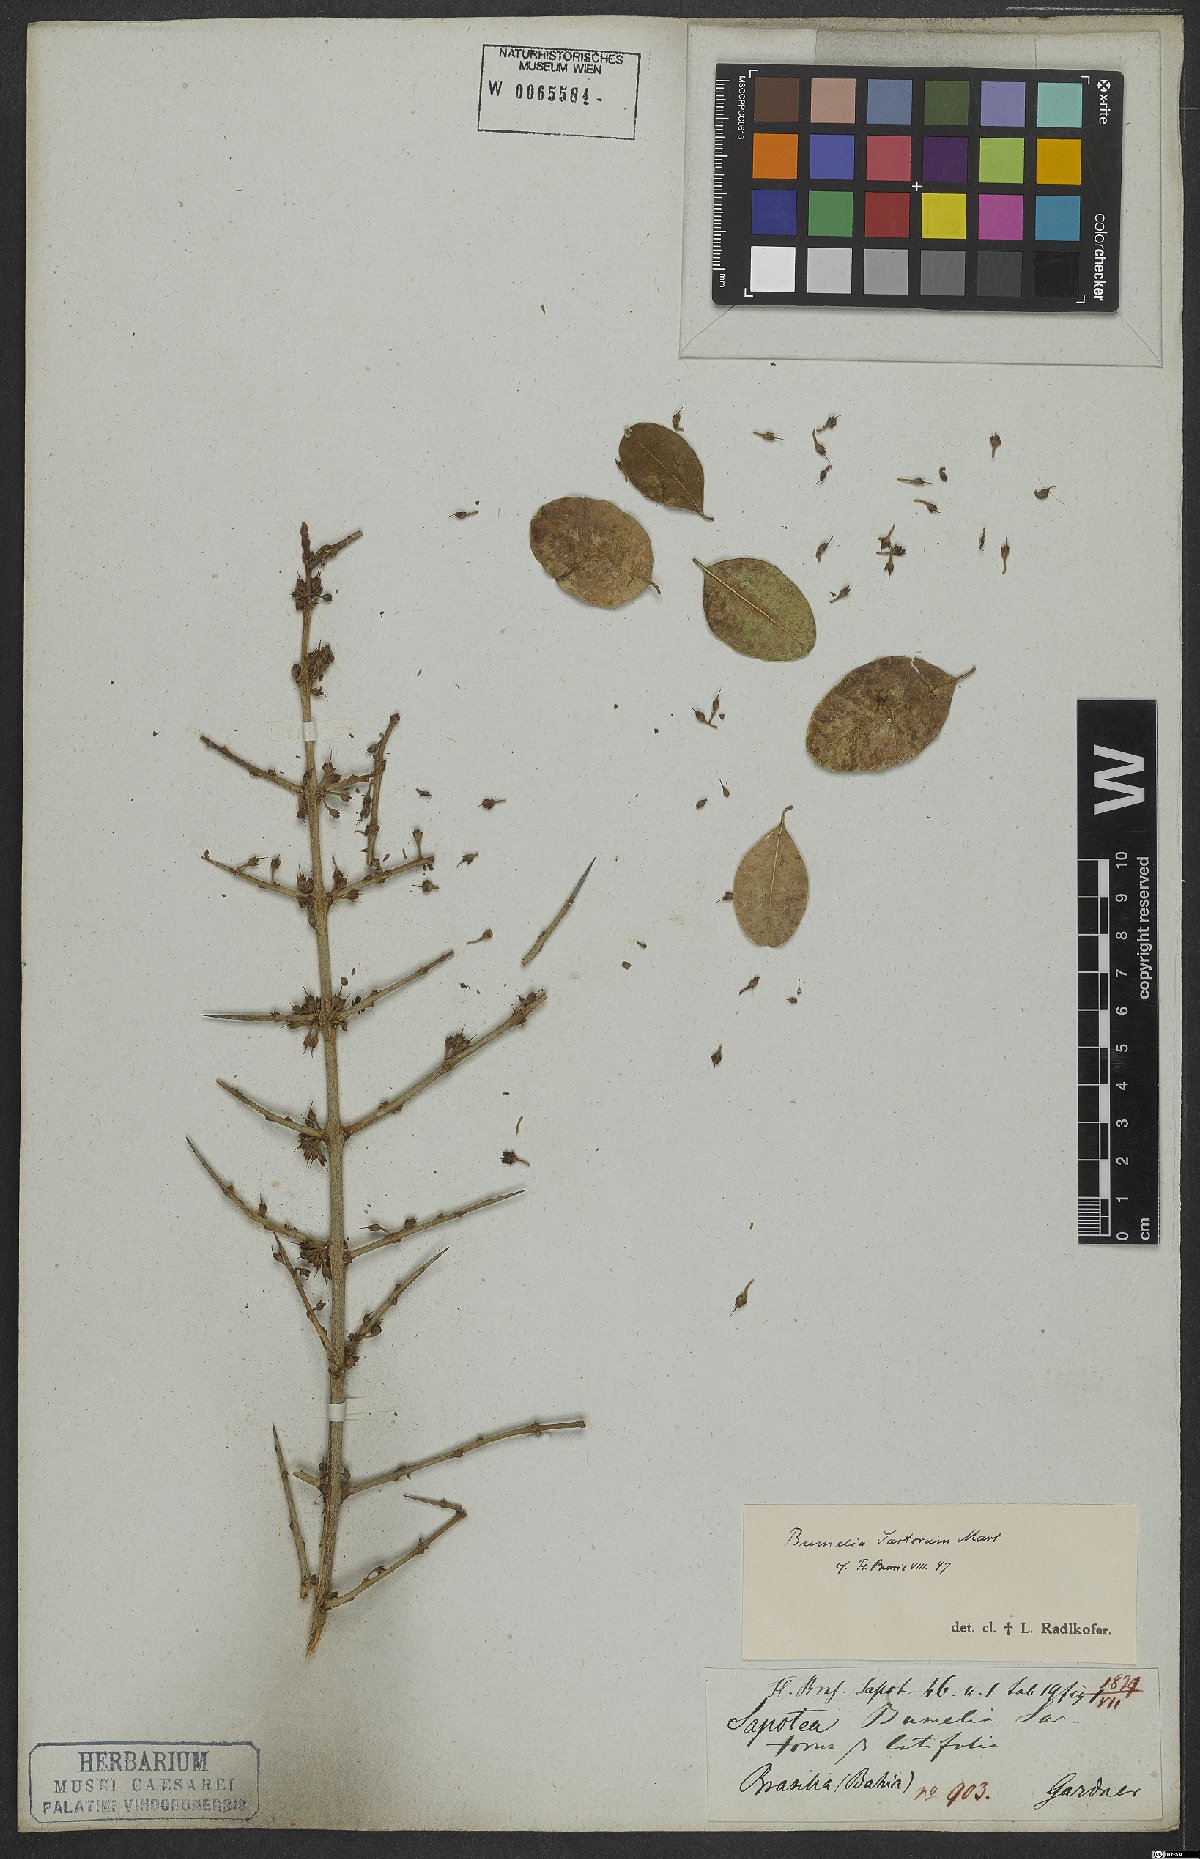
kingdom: Plantae
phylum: Tracheophyta
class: Magnoliopsida
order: Ericales
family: Sapotaceae
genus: Sideroxylon
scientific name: Sideroxylon obtusifolium
